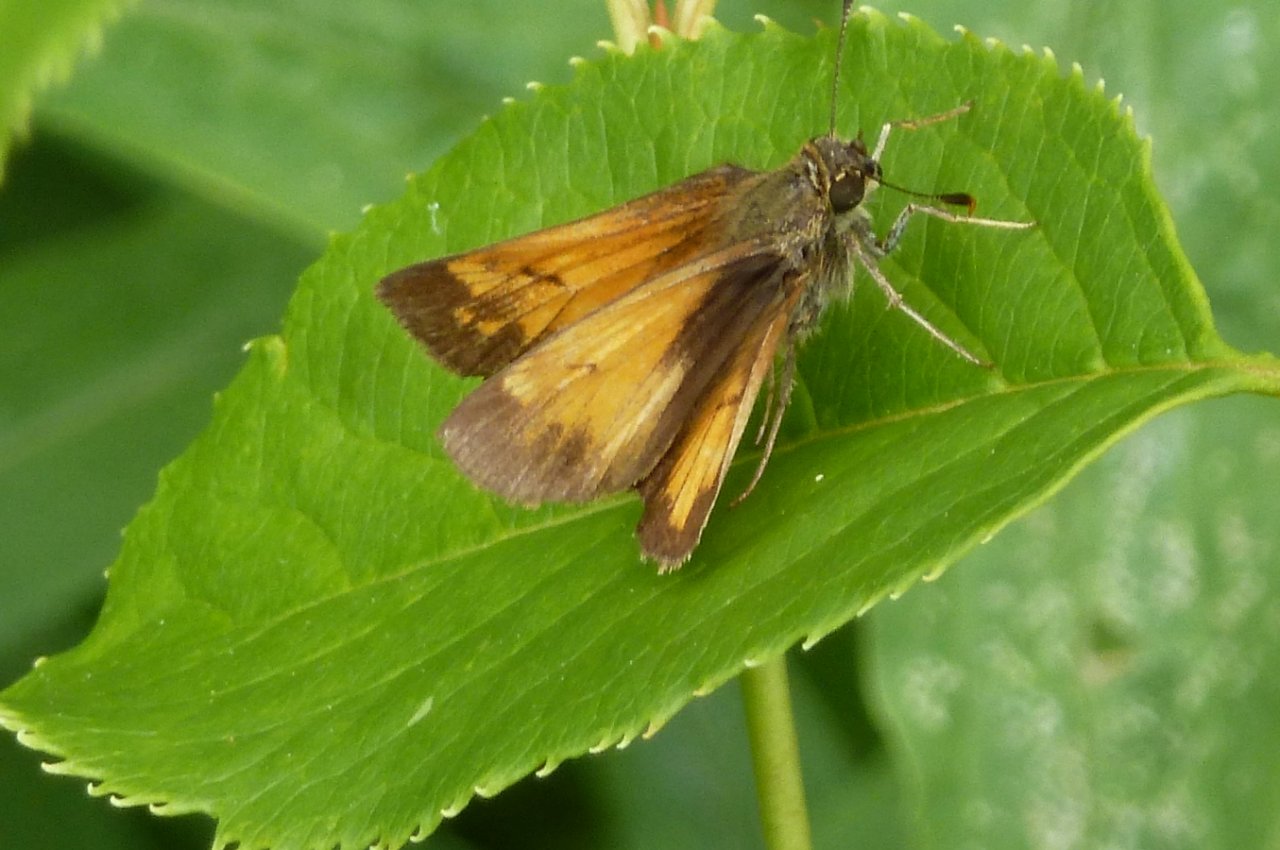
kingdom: Animalia
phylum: Arthropoda
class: Insecta
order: Lepidoptera
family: Hesperiidae
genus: Lon
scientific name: Lon hobomok
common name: Hobomok Skipper
